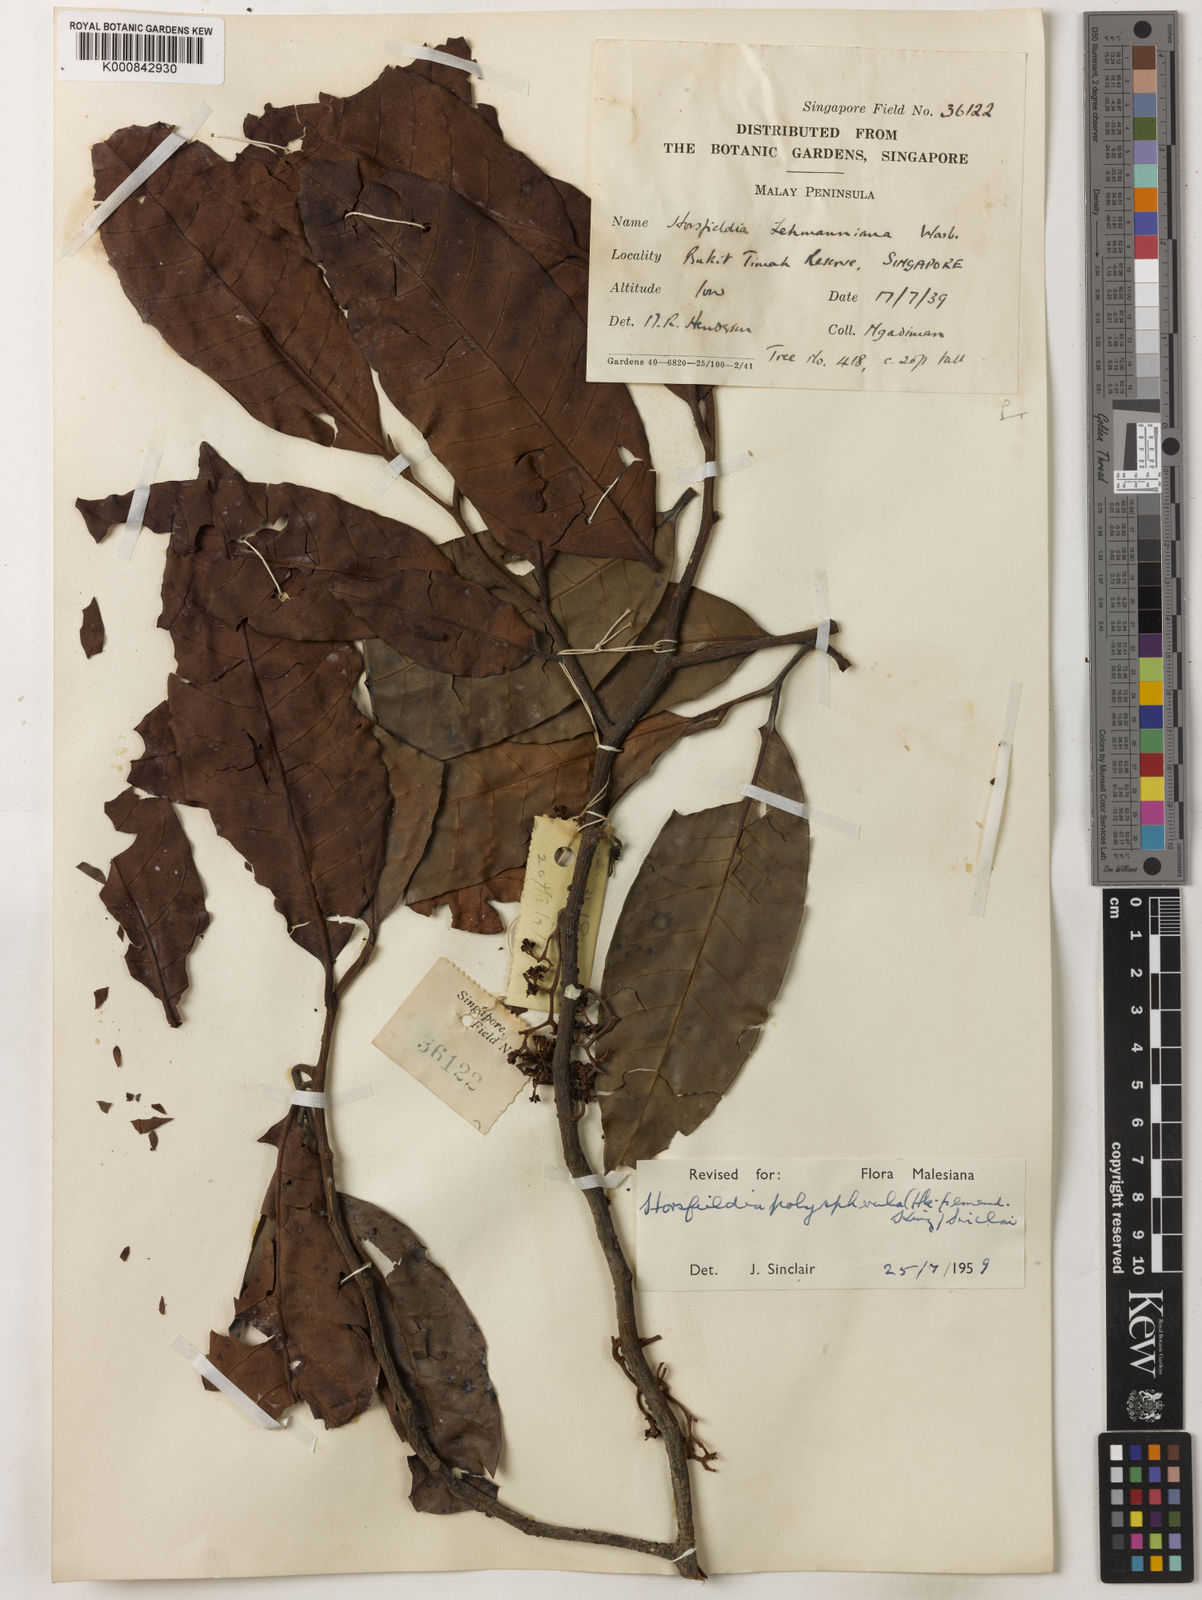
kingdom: Plantae
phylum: Tracheophyta
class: Magnoliopsida
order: Magnoliales
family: Myristicaceae
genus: Horsfieldia
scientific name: Horsfieldia polyspherula
